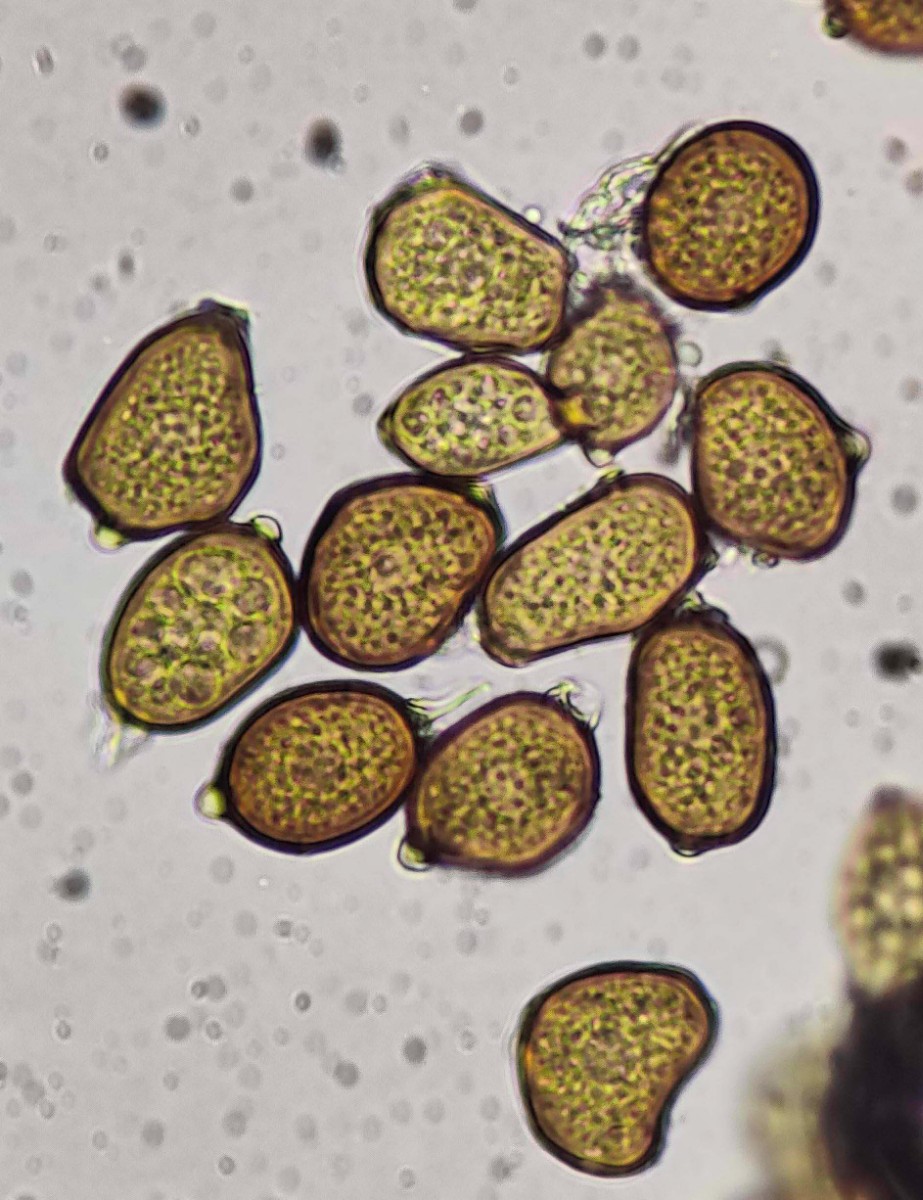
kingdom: Fungi
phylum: Basidiomycota
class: Pucciniomycetes
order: Pucciniales
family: Pucciniaceae
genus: Uromyces
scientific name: Uromyces ficariae
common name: vorterod-encellerust
